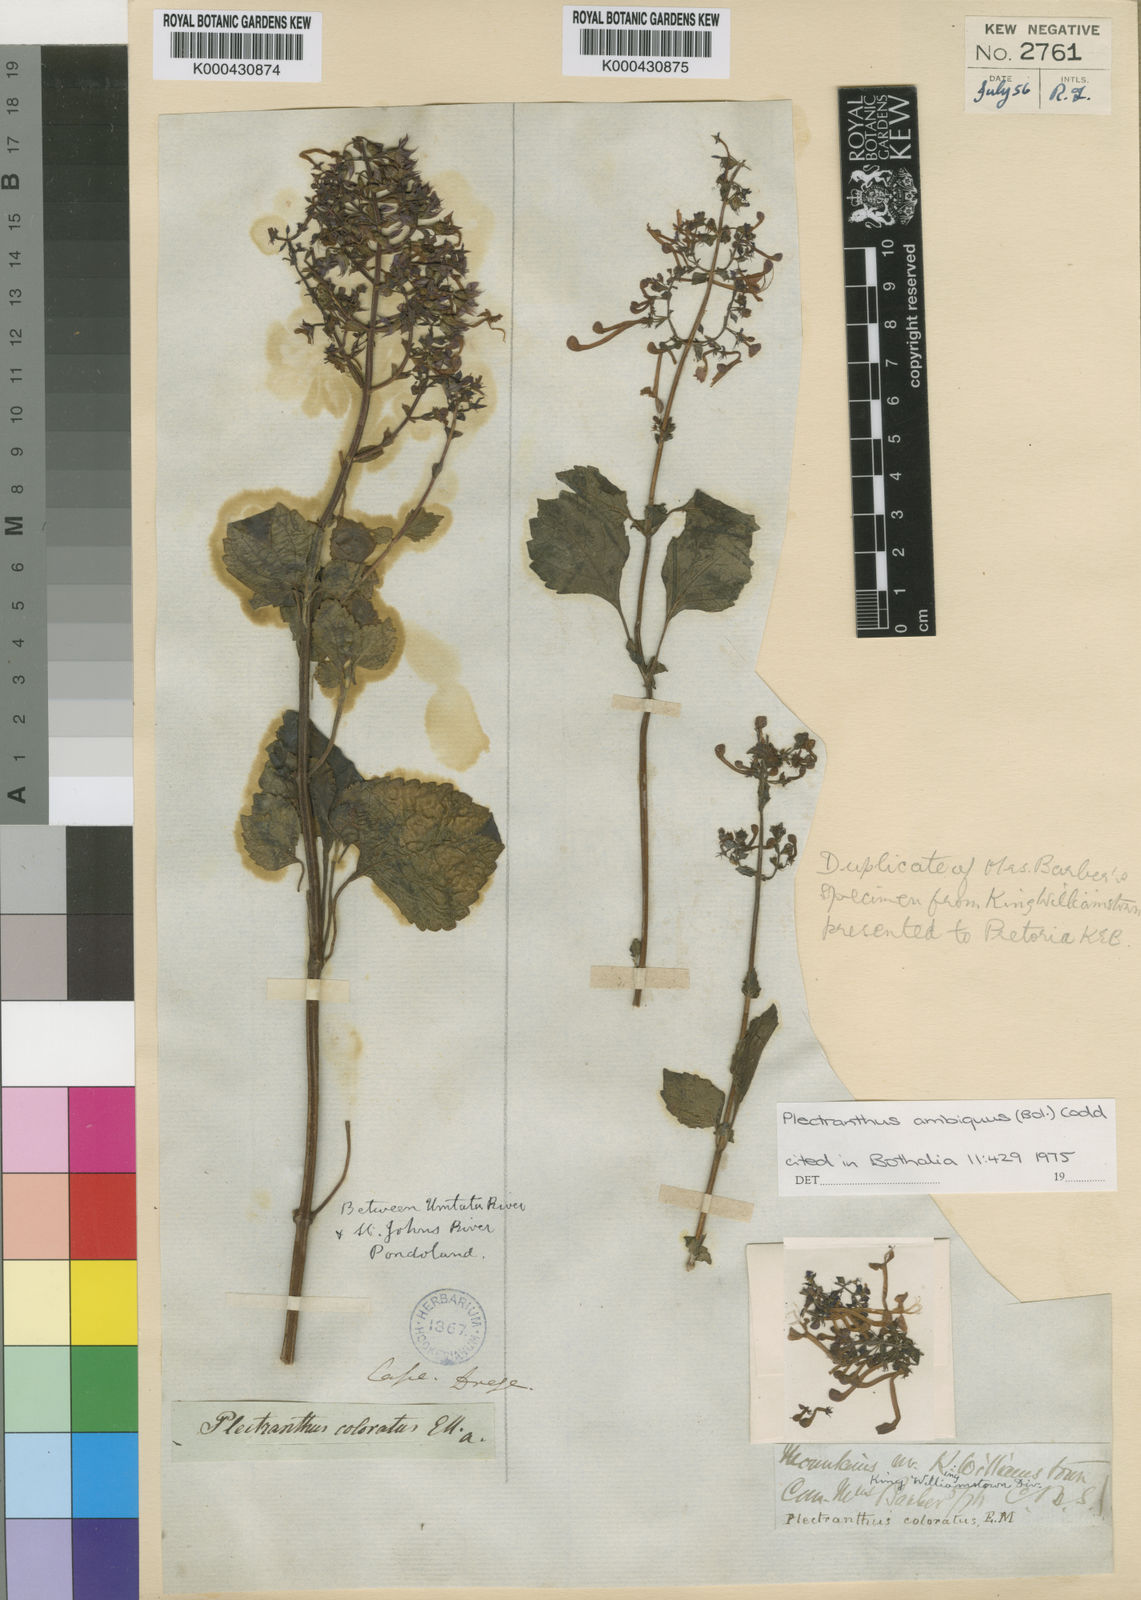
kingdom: Plantae
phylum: Tracheophyta
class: Magnoliopsida
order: Lamiales
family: Lamiaceae
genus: Plectranthus
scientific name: Plectranthus ambiguus
